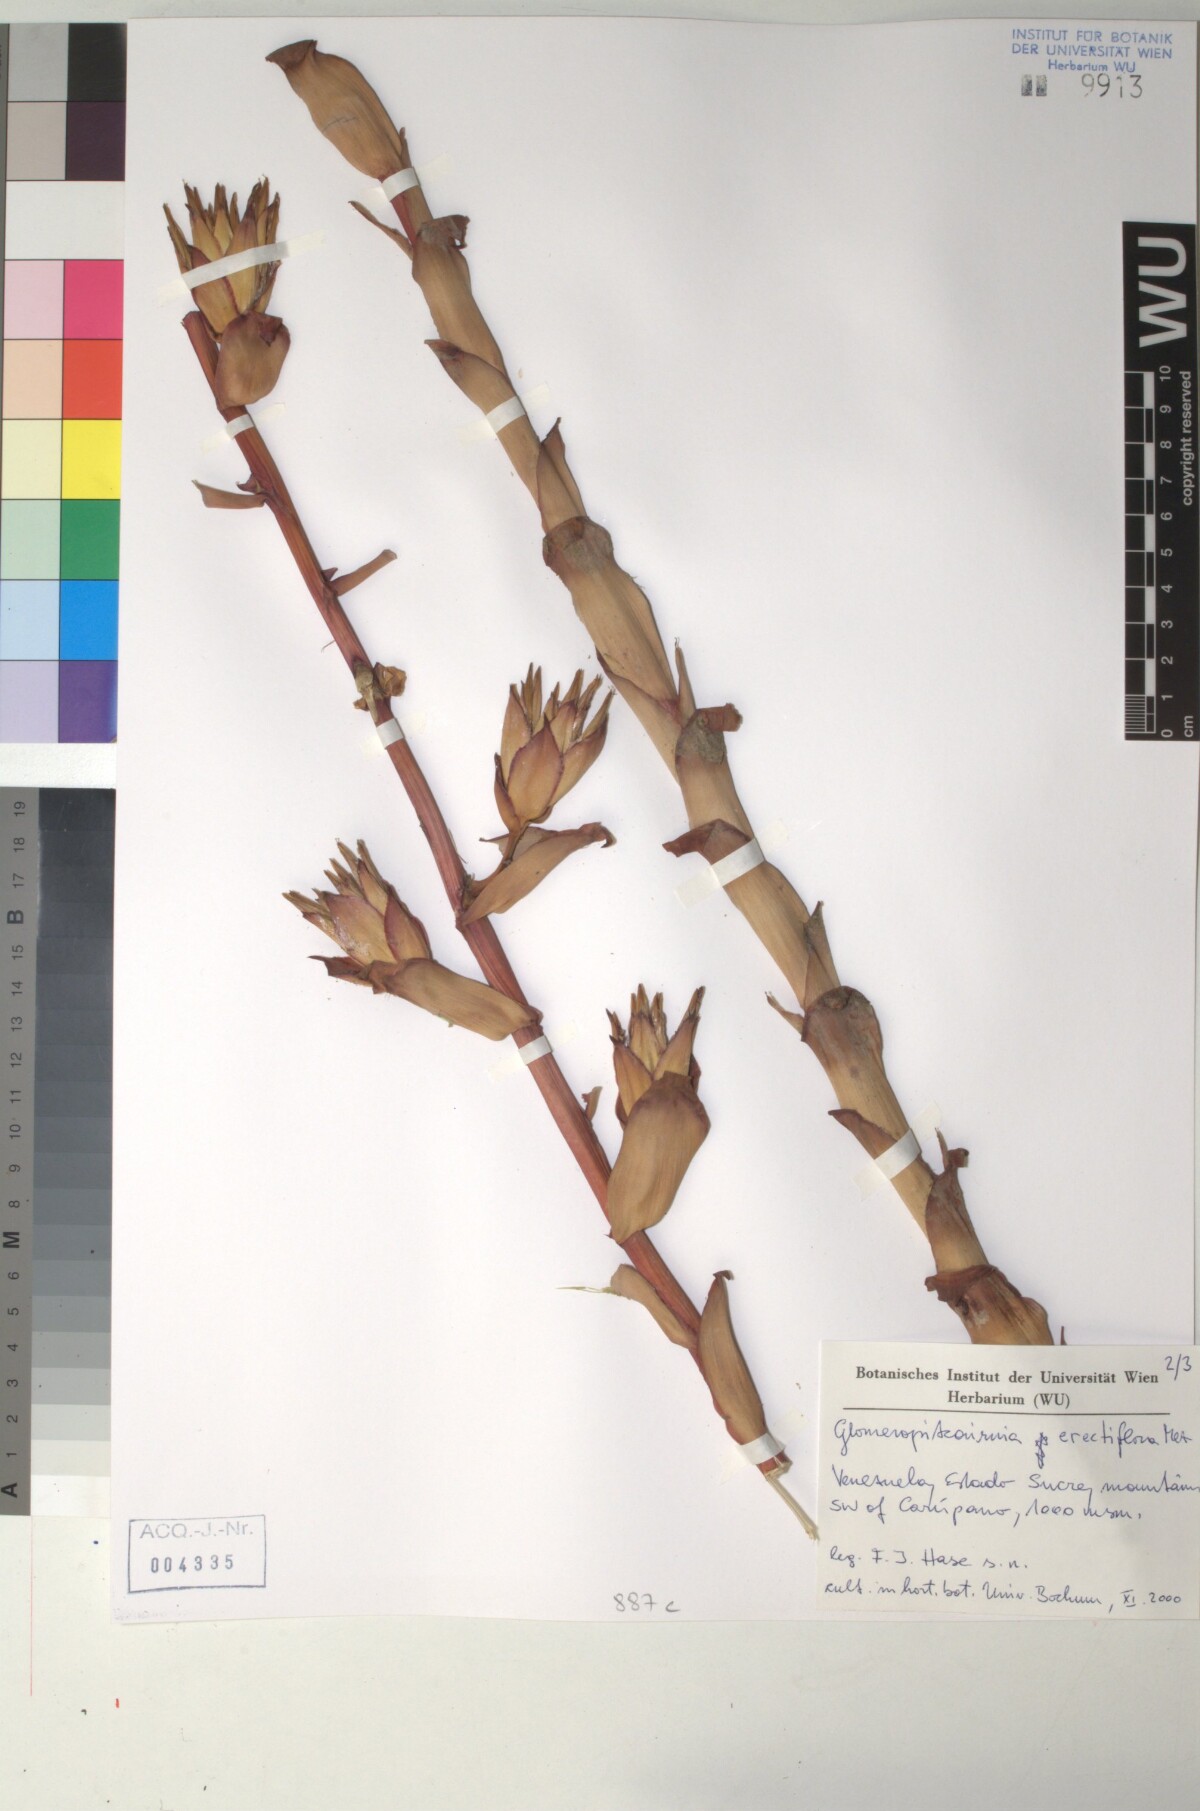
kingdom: Plantae
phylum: Tracheophyta
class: Liliopsida
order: Poales
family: Bromeliaceae
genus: Glomeropitcairnia
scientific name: Glomeropitcairnia erectiflora
